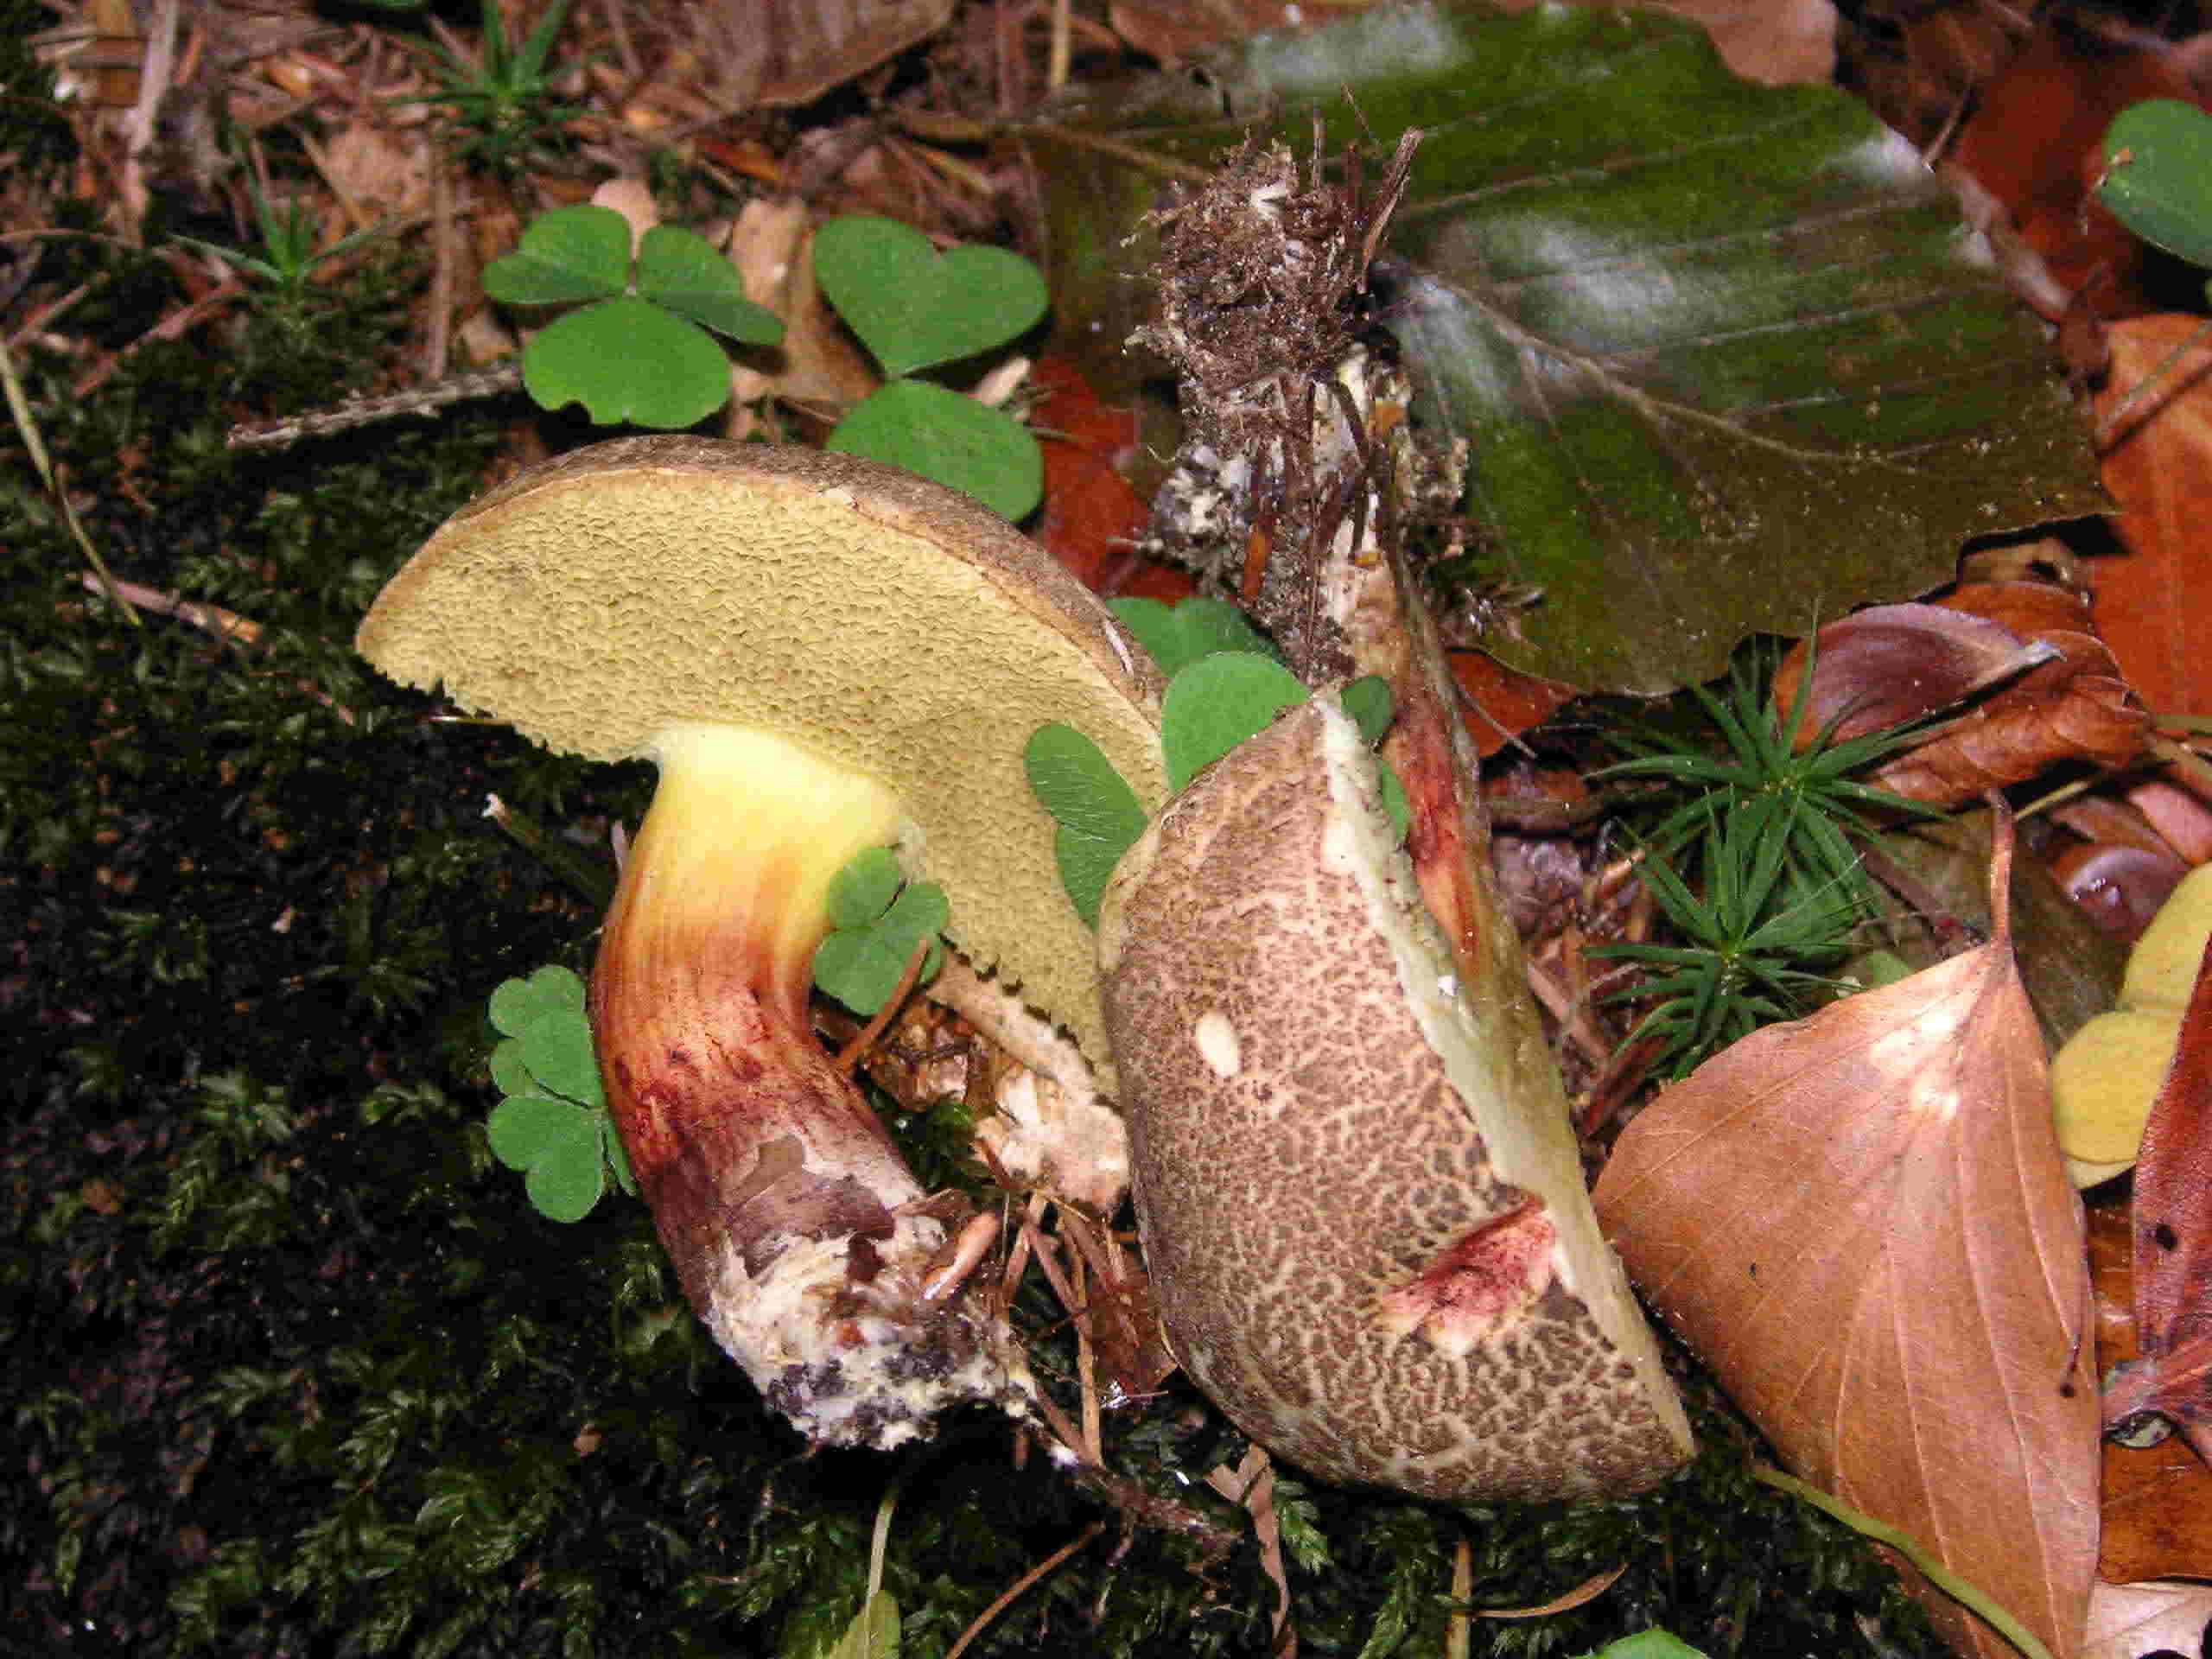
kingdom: Fungi
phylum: Basidiomycota
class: Agaricomycetes
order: Boletales
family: Boletaceae
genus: Xerocomellus
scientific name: Xerocomellus chrysenteron
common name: rødsprukken rørhat
